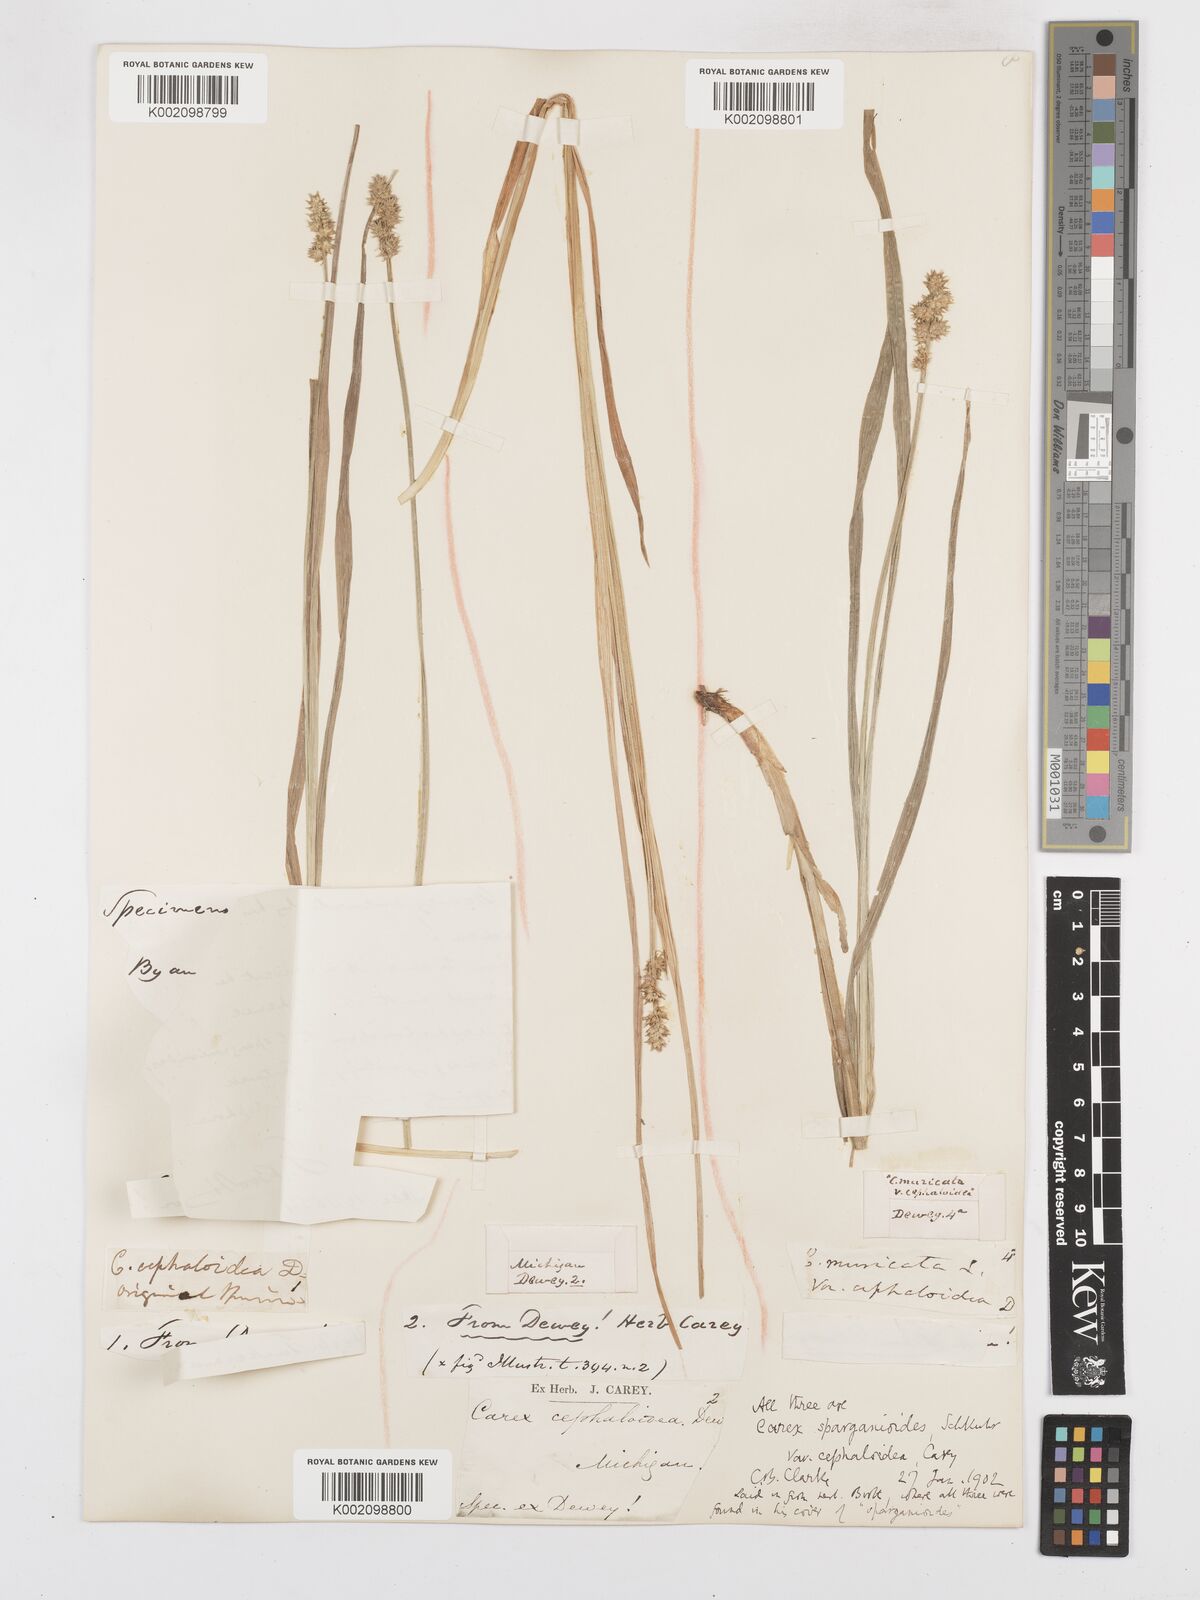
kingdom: Plantae
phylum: Tracheophyta
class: Liliopsida
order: Poales
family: Cyperaceae
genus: Carex
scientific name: Carex sparganioides
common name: Burreed sedge
